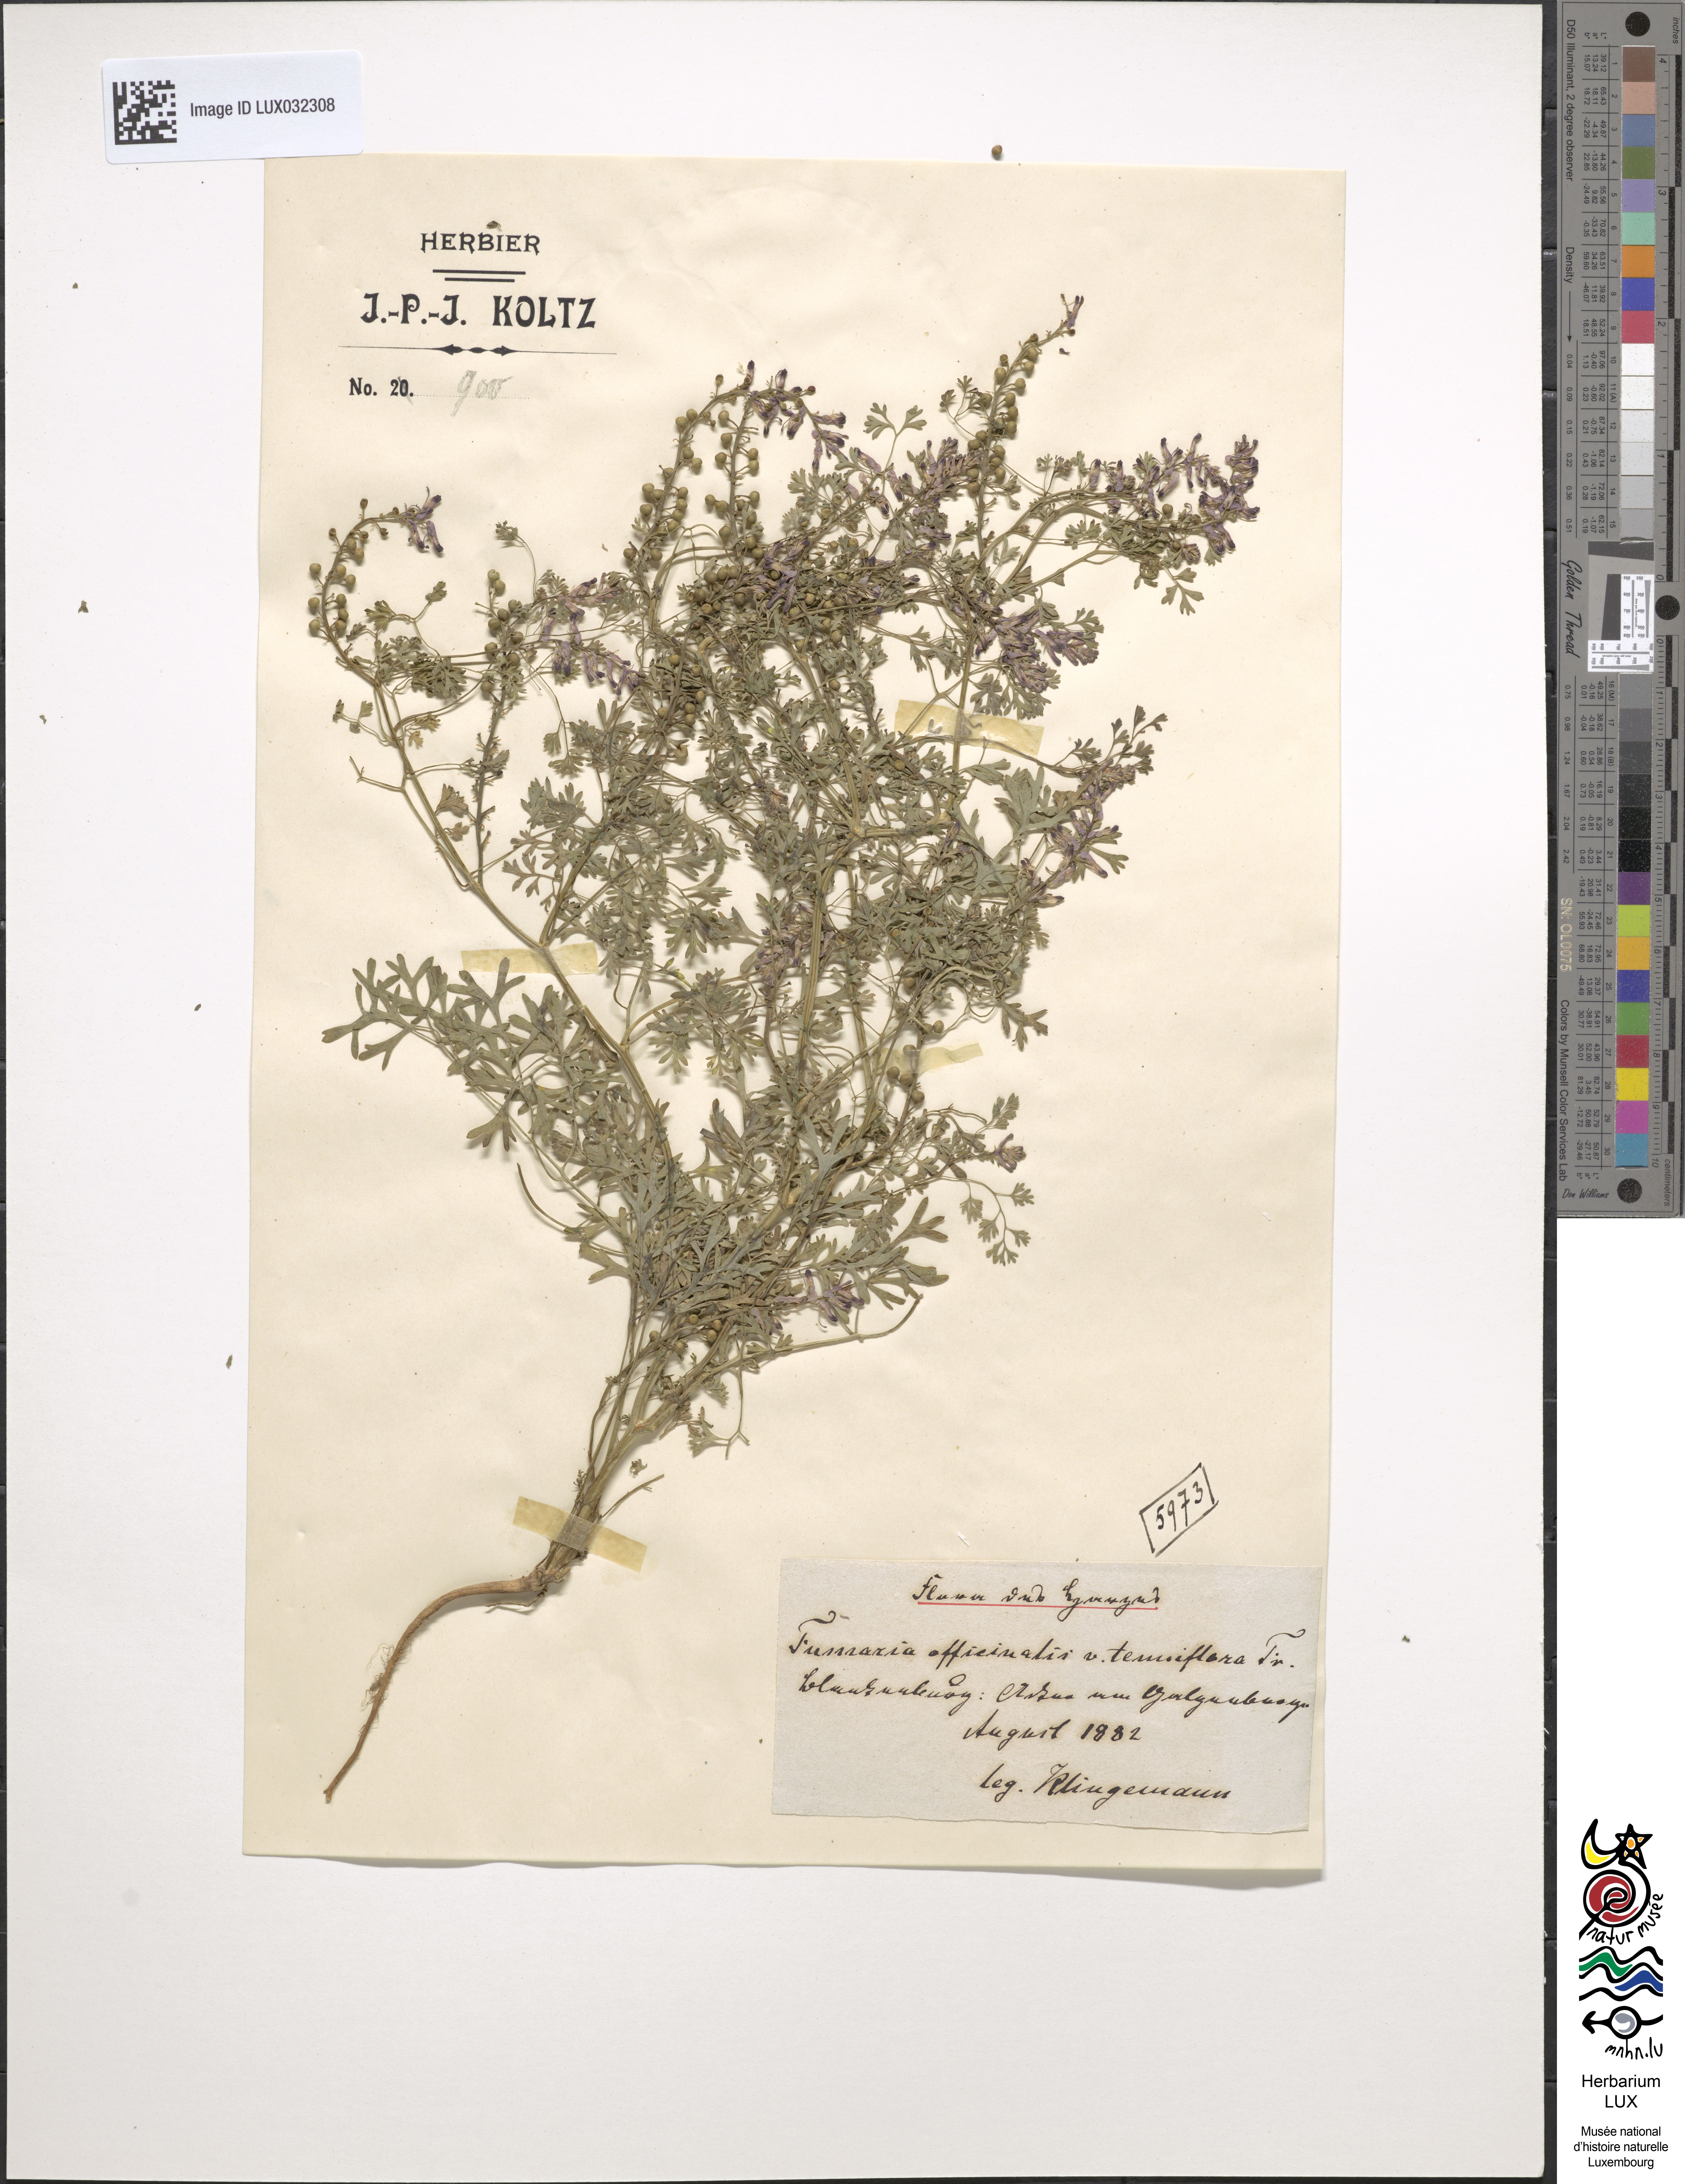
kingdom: Plantae
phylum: Tracheophyta
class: Magnoliopsida
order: Ranunculales
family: Papaveraceae
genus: Fumaria
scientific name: Fumaria wirtgenii
